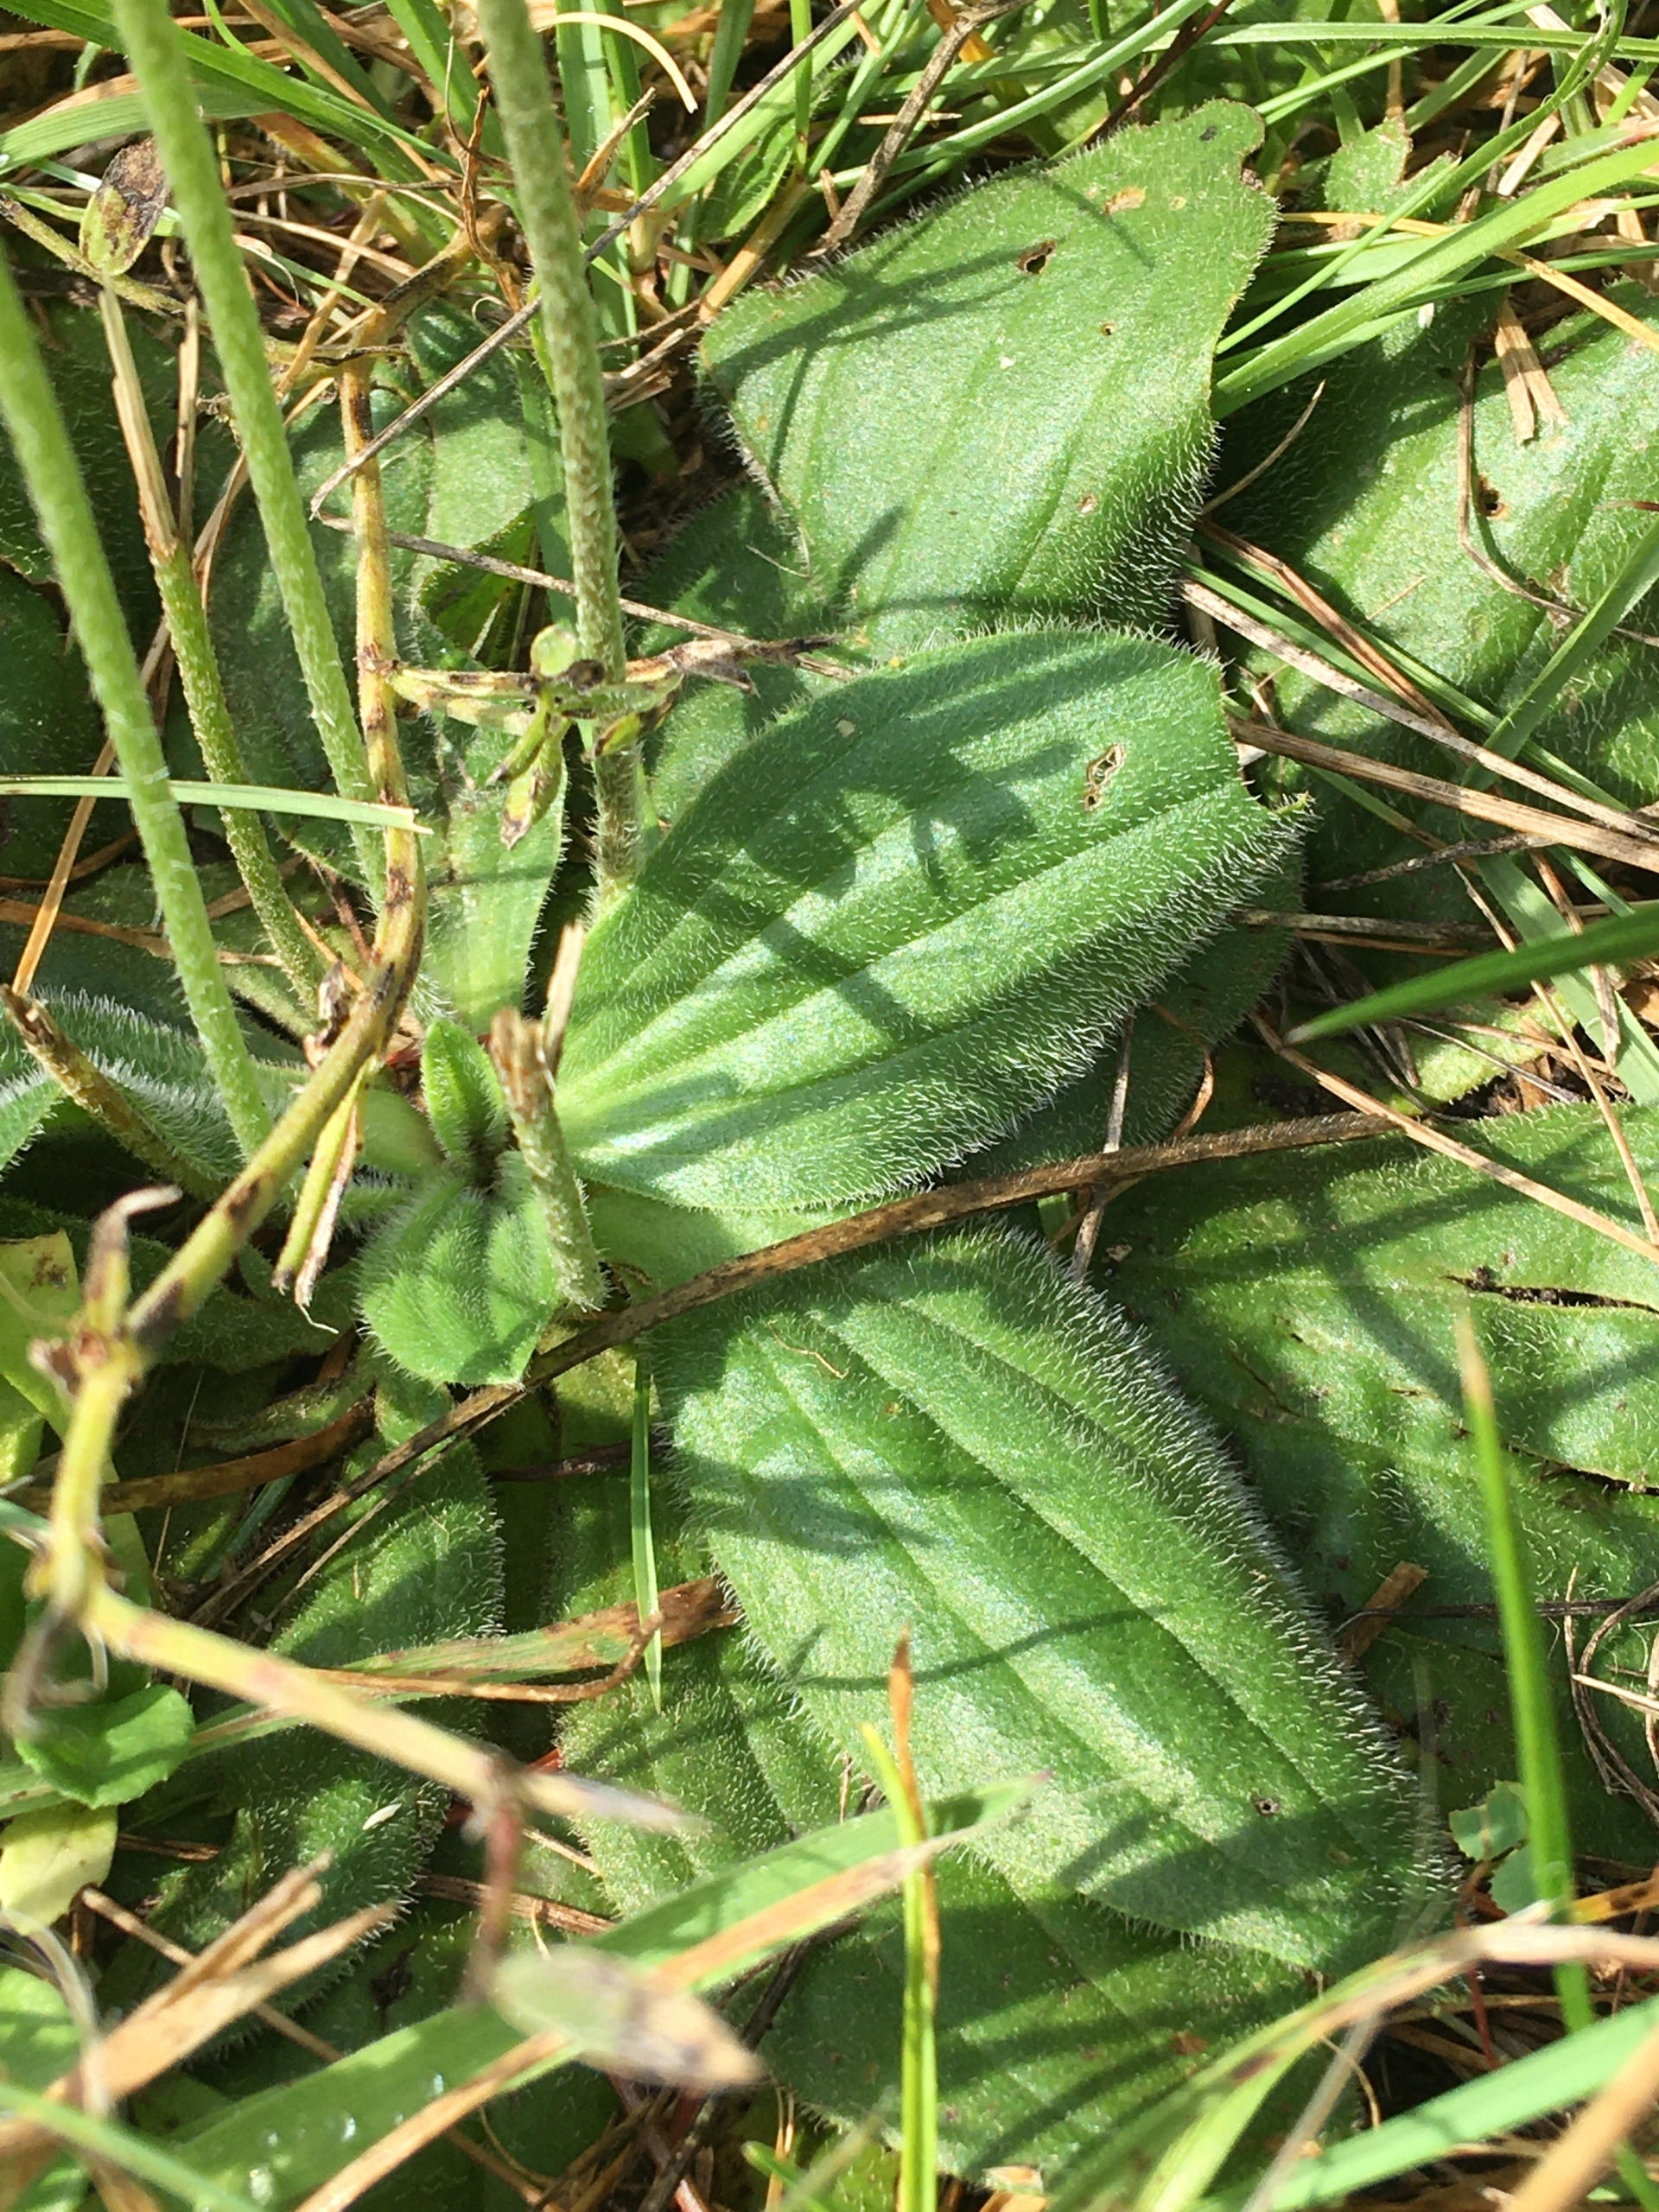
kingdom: Plantae
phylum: Tracheophyta
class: Magnoliopsida
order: Lamiales
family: Plantaginaceae
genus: Plantago
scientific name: Plantago media
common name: Dunet vejbred
